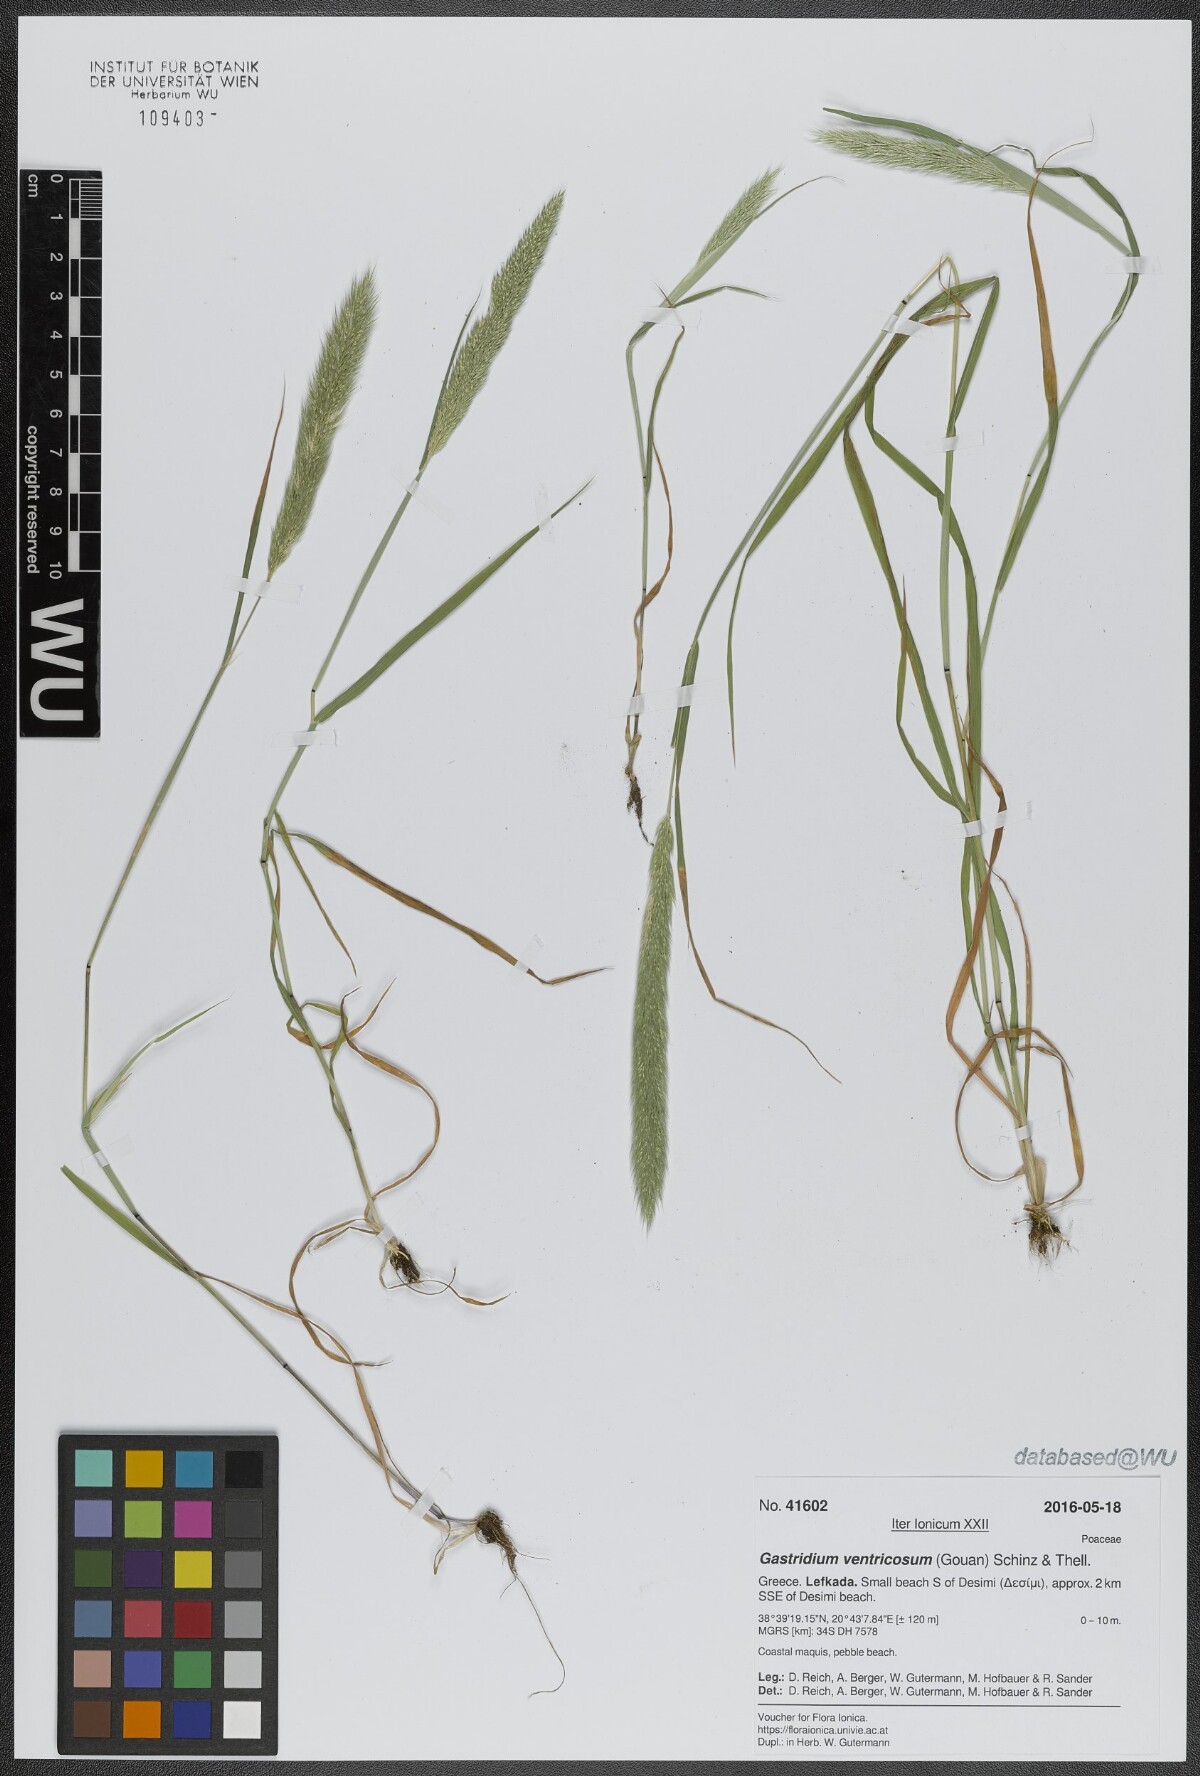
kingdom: Plantae
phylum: Tracheophyta
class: Liliopsida
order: Poales
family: Poaceae
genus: Gastridium
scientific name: Gastridium ventricosum
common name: Nit-grass
